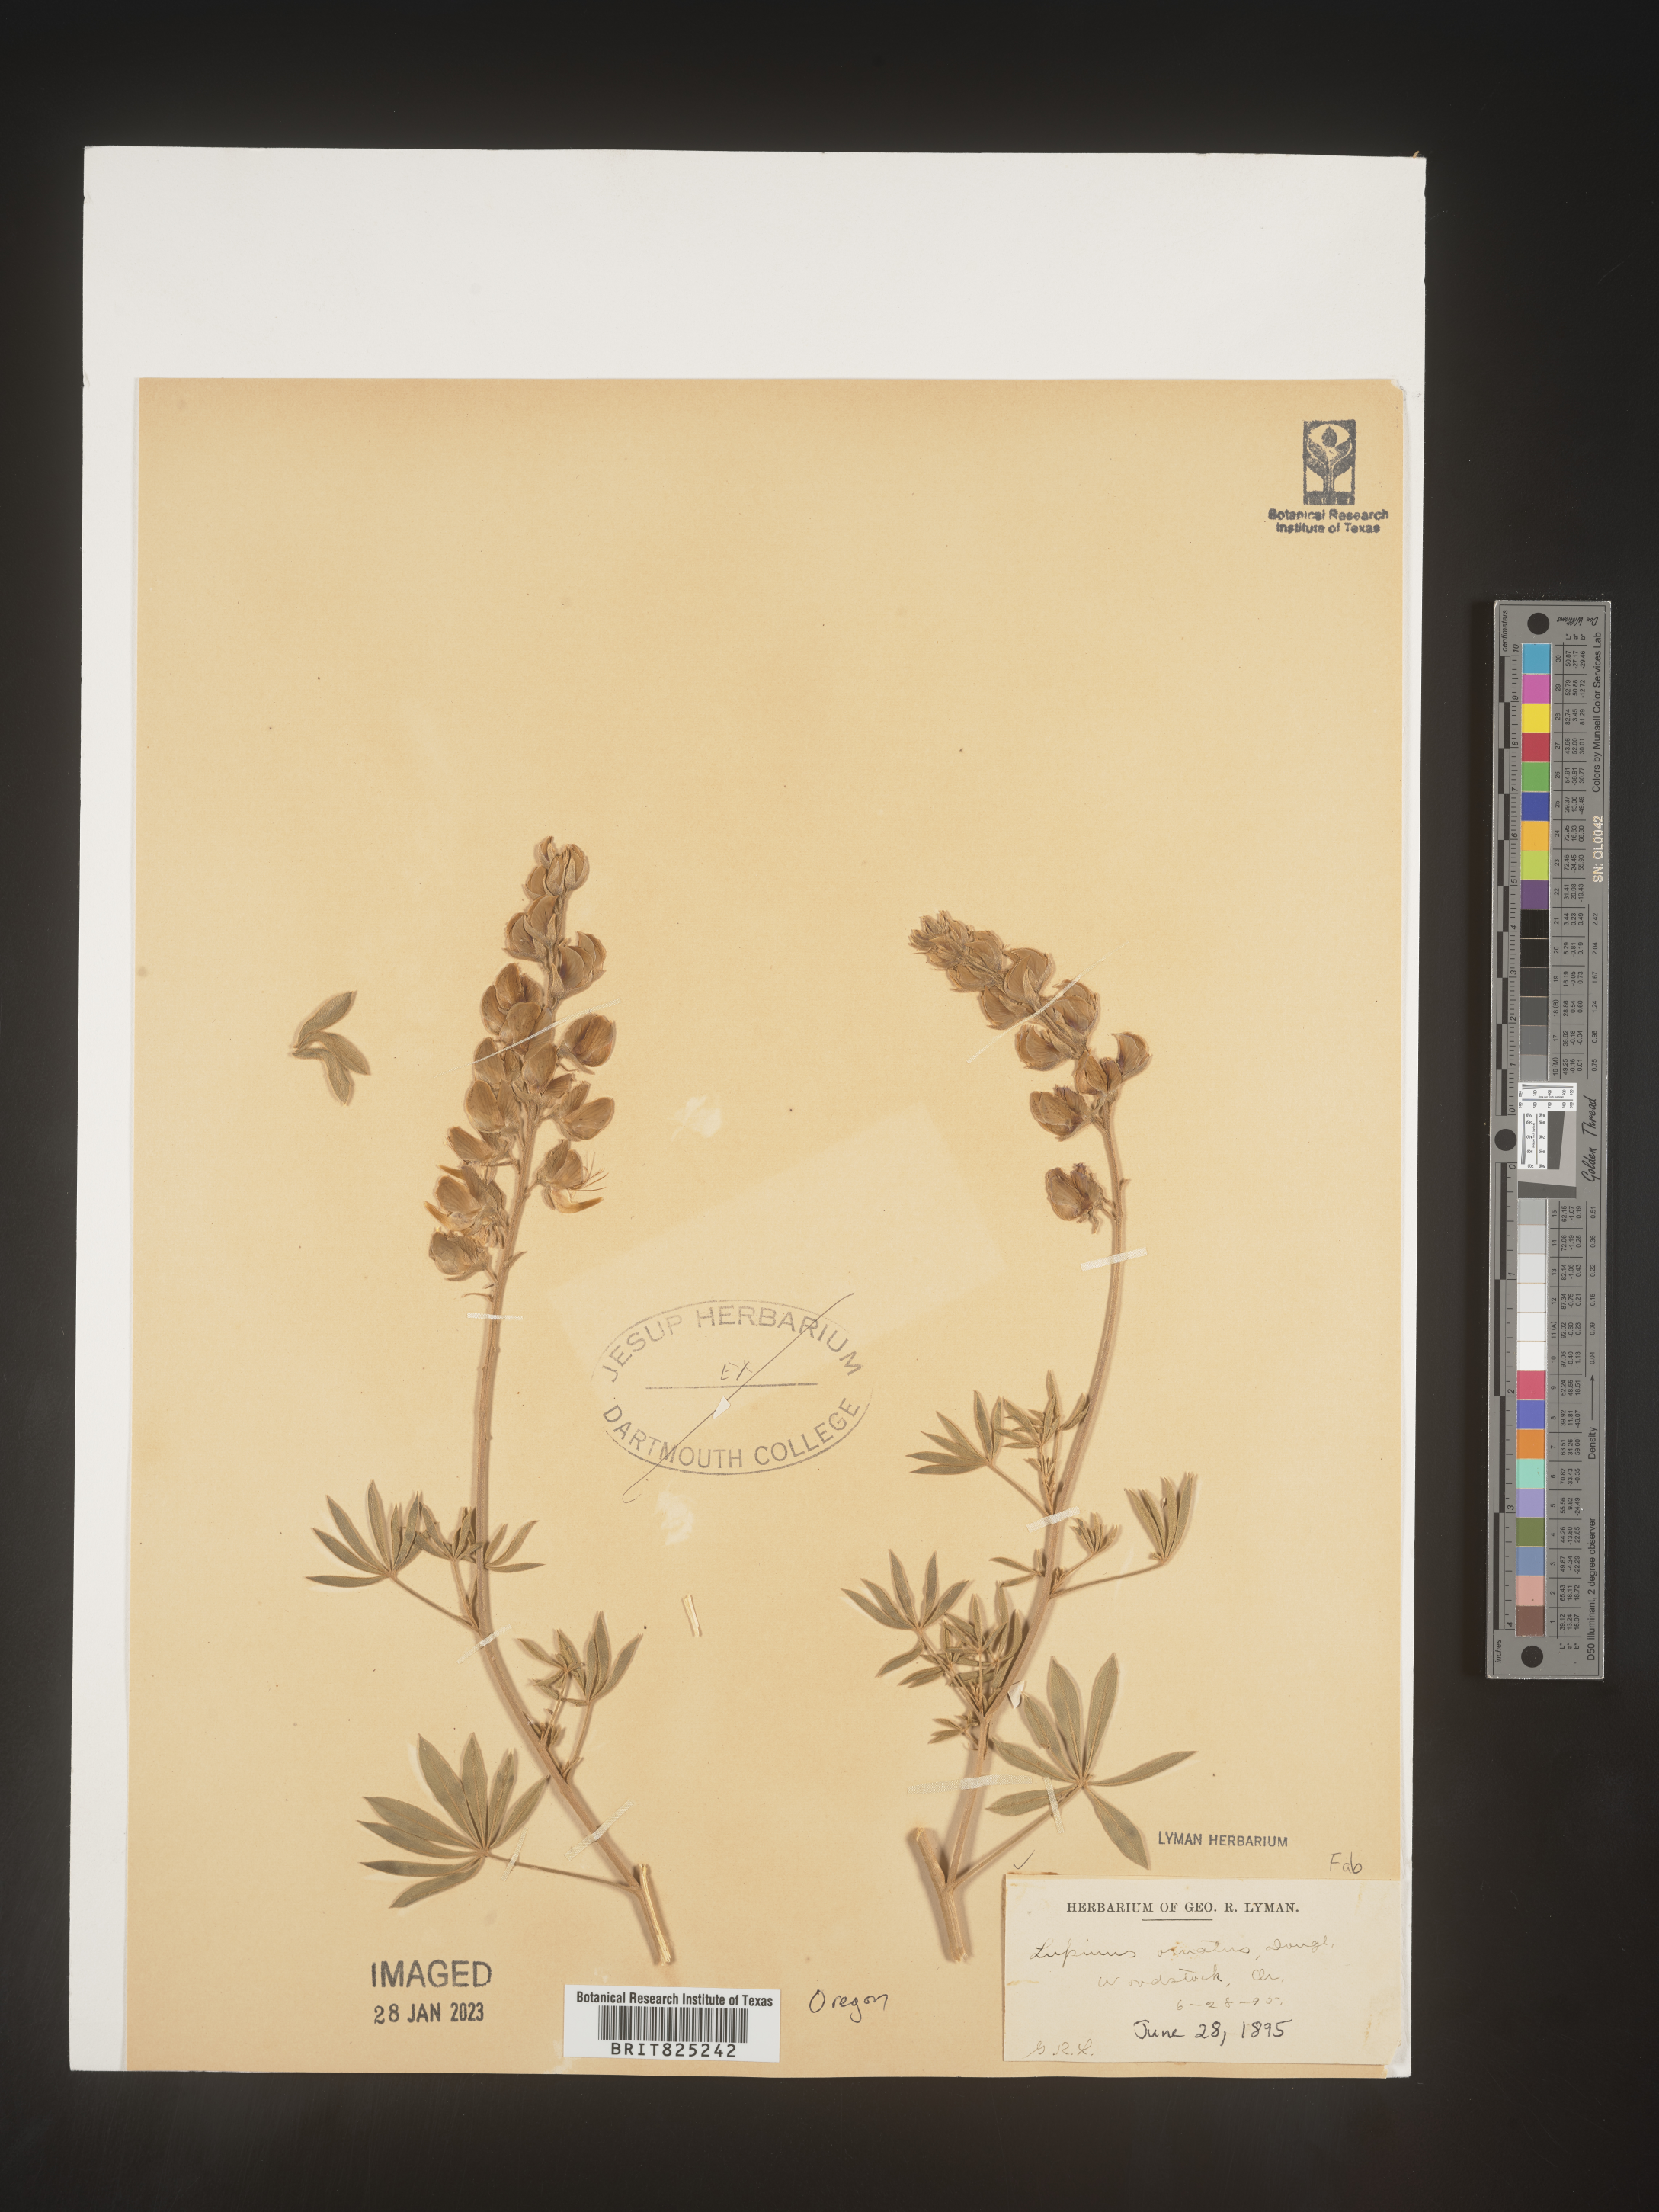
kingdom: Plantae
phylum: Tracheophyta
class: Magnoliopsida
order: Fabales
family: Fabaceae
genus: Lupinus
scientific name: Lupinus
